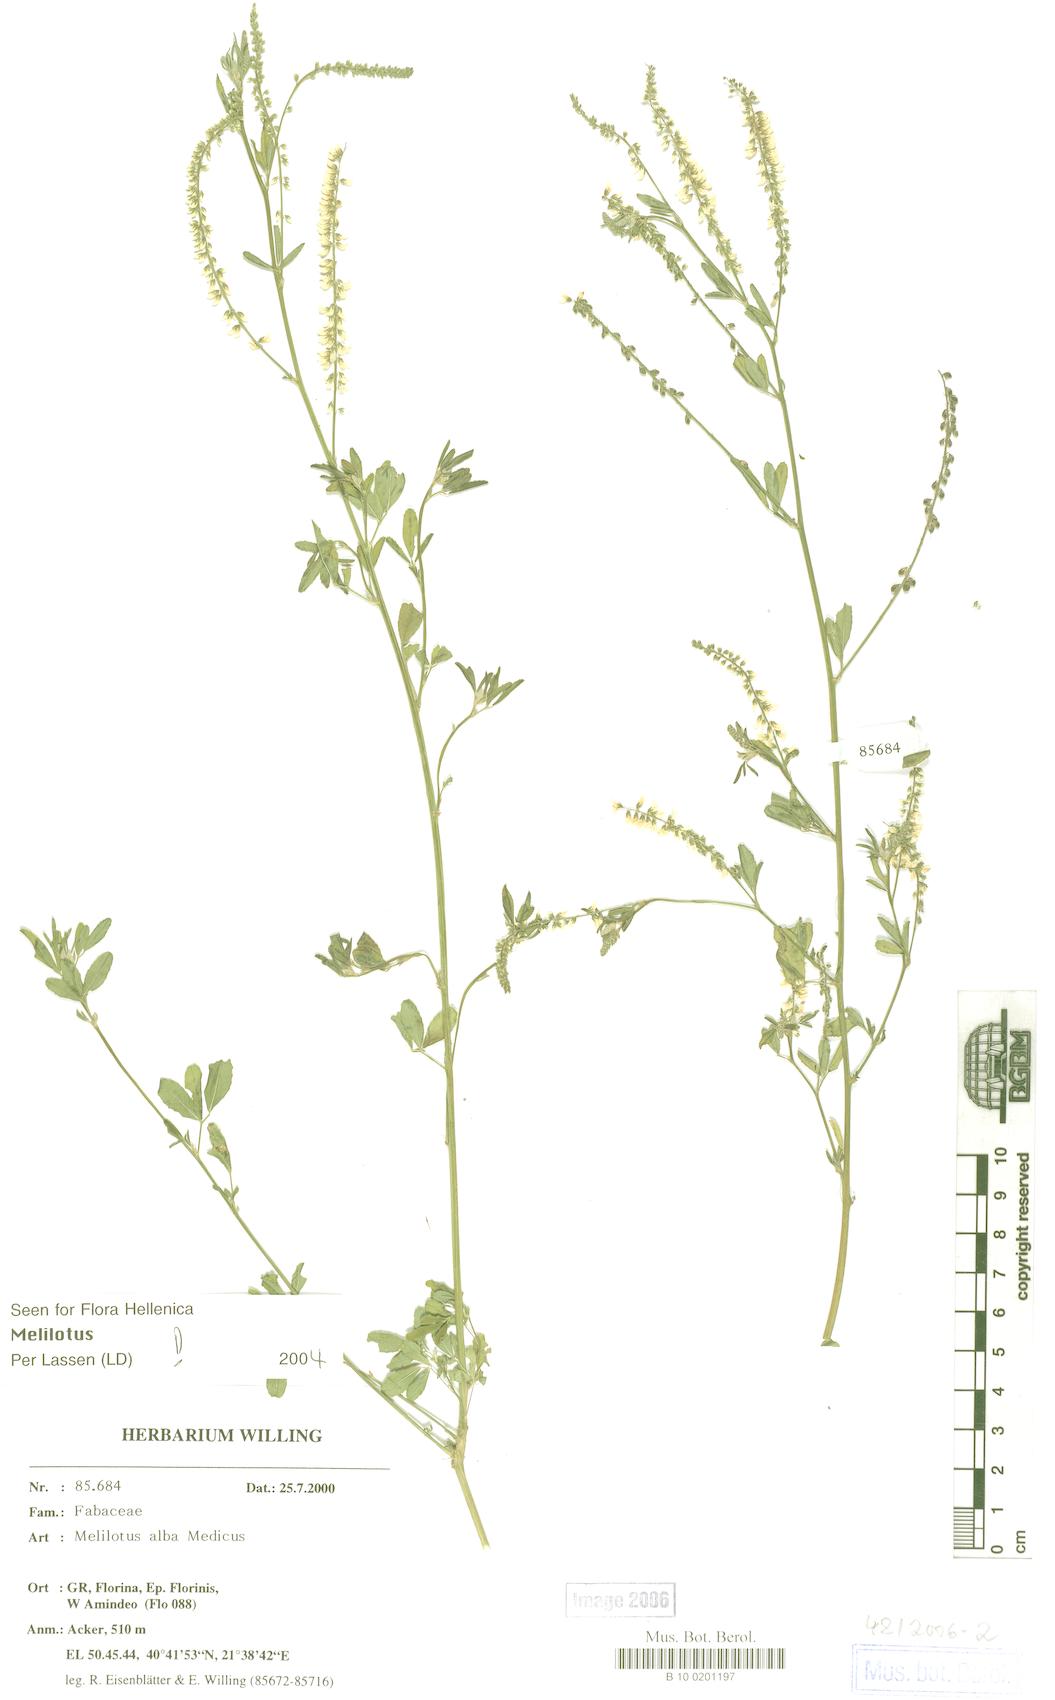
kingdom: Plantae
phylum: Tracheophyta
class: Magnoliopsida
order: Fabales
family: Fabaceae
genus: Melilotus
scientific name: Melilotus albus
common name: White melilot
